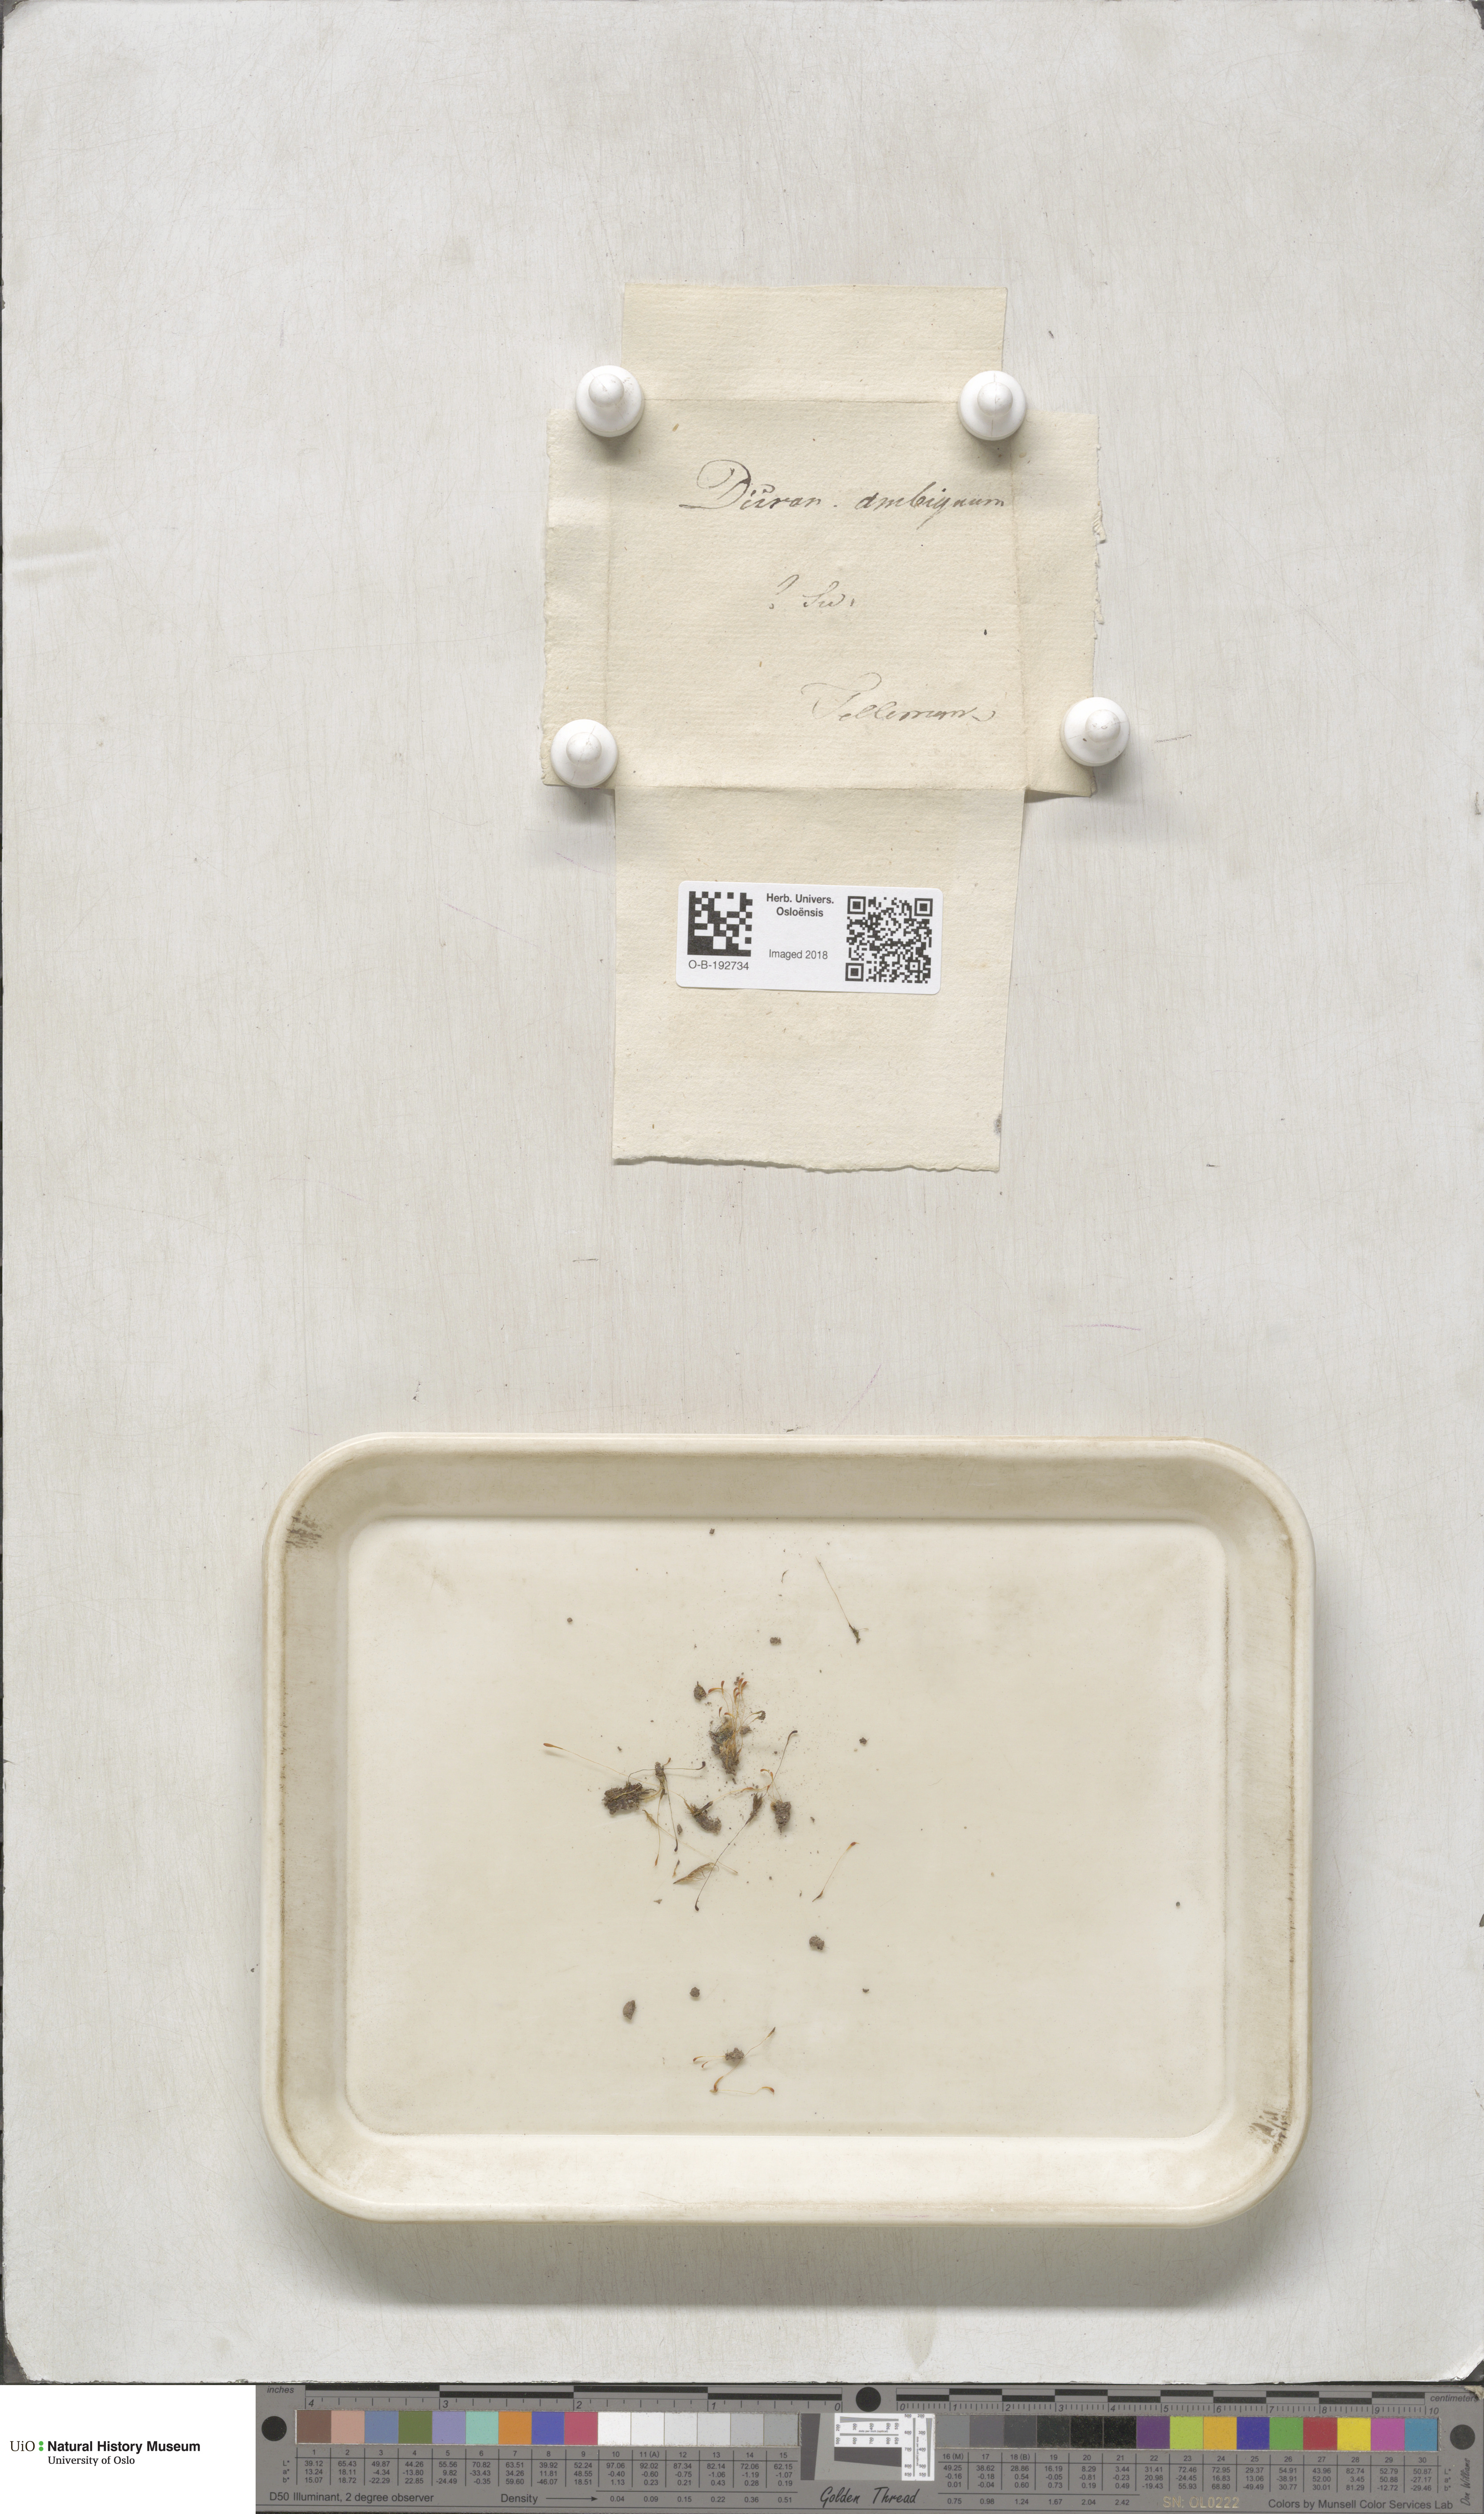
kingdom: Plantae
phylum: Bryophyta
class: Bryopsida
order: Dicranales
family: Bruchiaceae
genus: Trematodon
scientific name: Trematodon ambiguus
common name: Ambiguous long-necked moss
